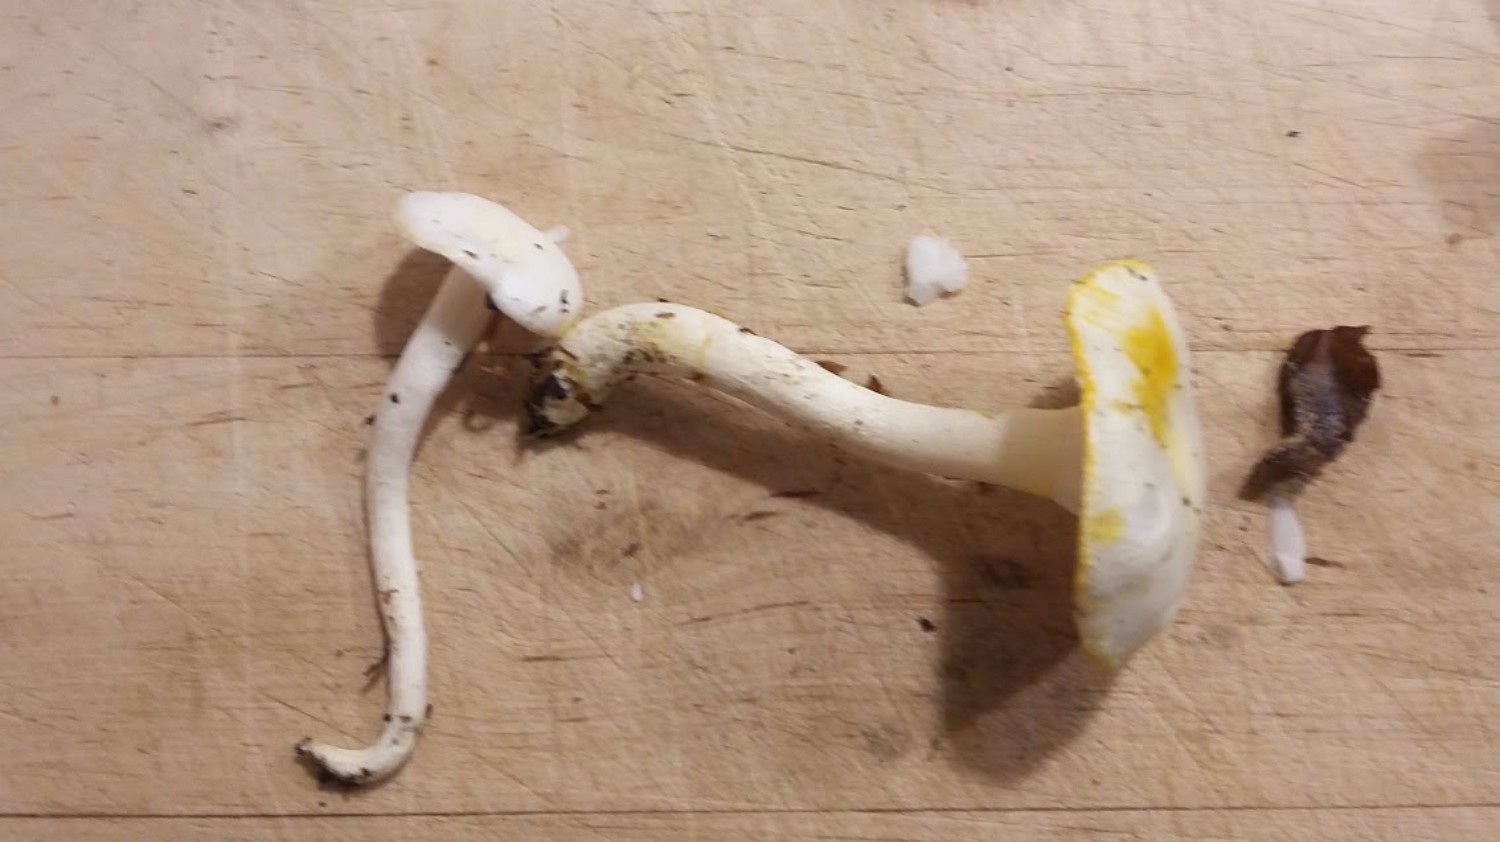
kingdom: Fungi
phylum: Basidiomycota
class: Agaricomycetes
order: Agaricales
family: Hygrophoraceae
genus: Hygrophorus
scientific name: Hygrophorus
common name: sneglehat
